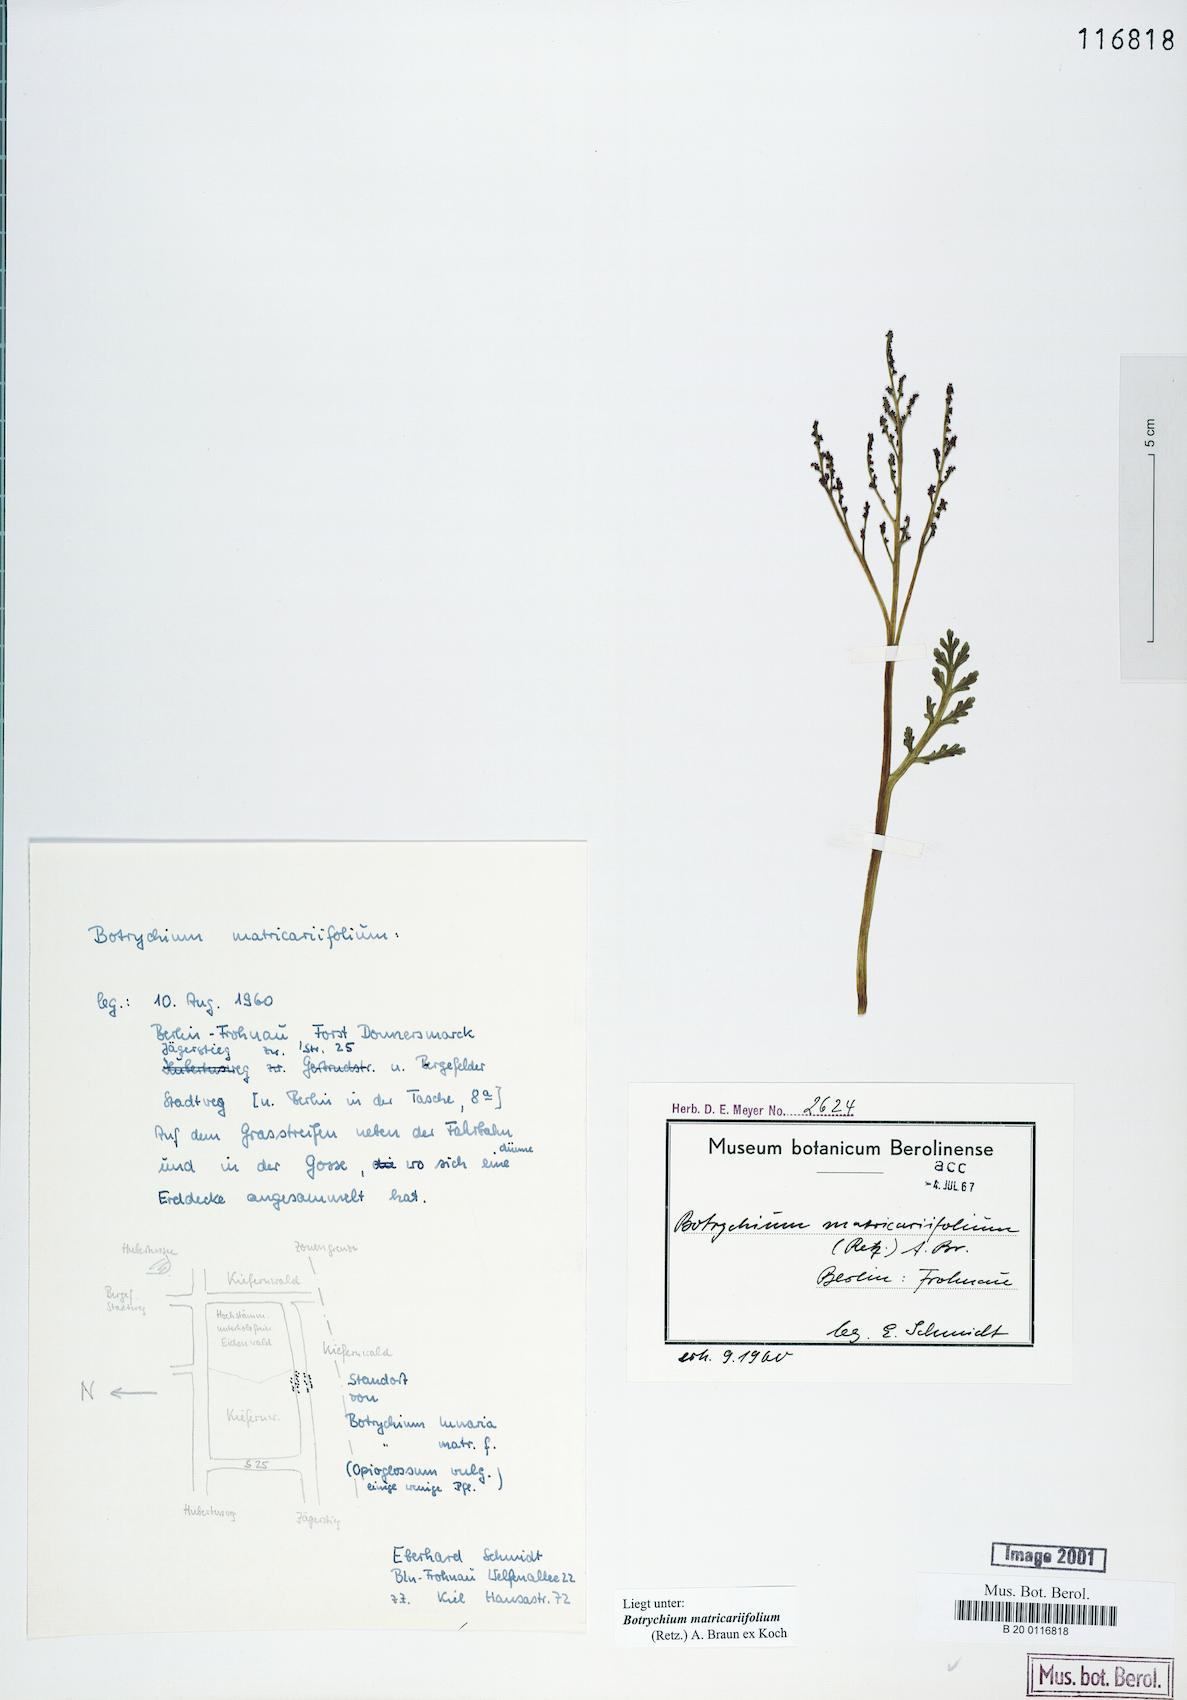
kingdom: Plantae
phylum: Tracheophyta
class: Polypodiopsida
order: Ophioglossales
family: Ophioglossaceae
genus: Botrychium
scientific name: Botrychium matricariifolium
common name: Branched moonwort
